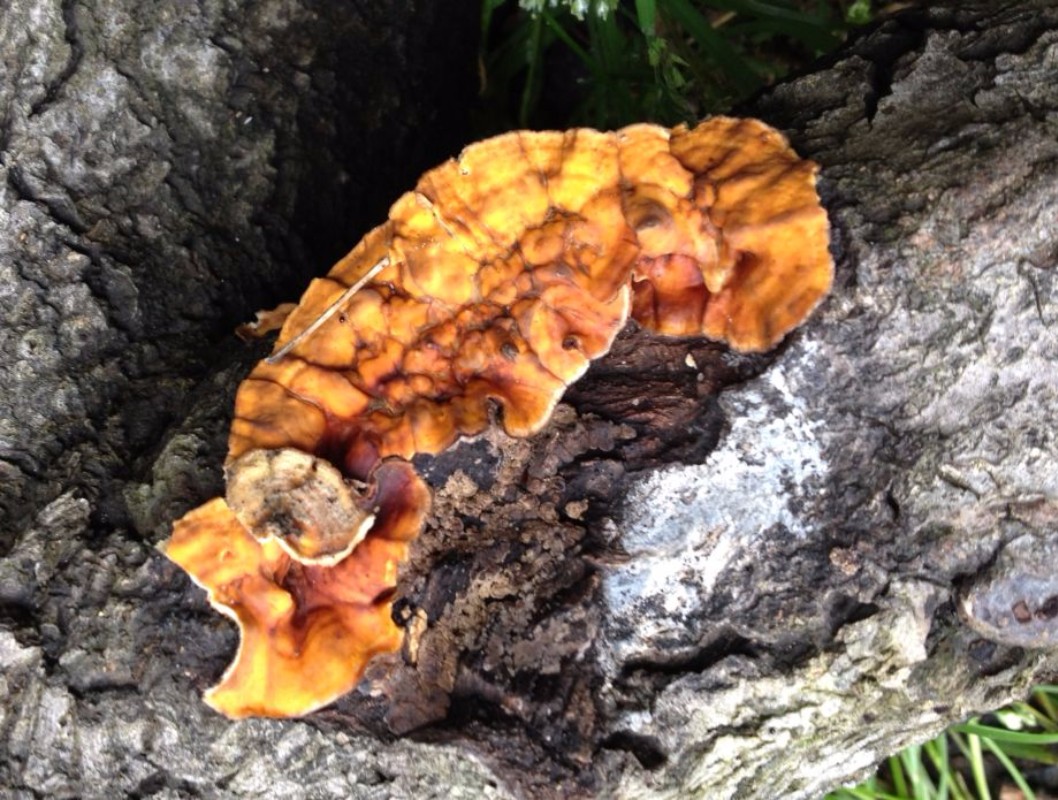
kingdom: Fungi
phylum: Basidiomycota
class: Agaricomycetes
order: Russulales
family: Stereaceae
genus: Stereum
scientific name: Stereum hirsutum
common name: håret lædersvamp
